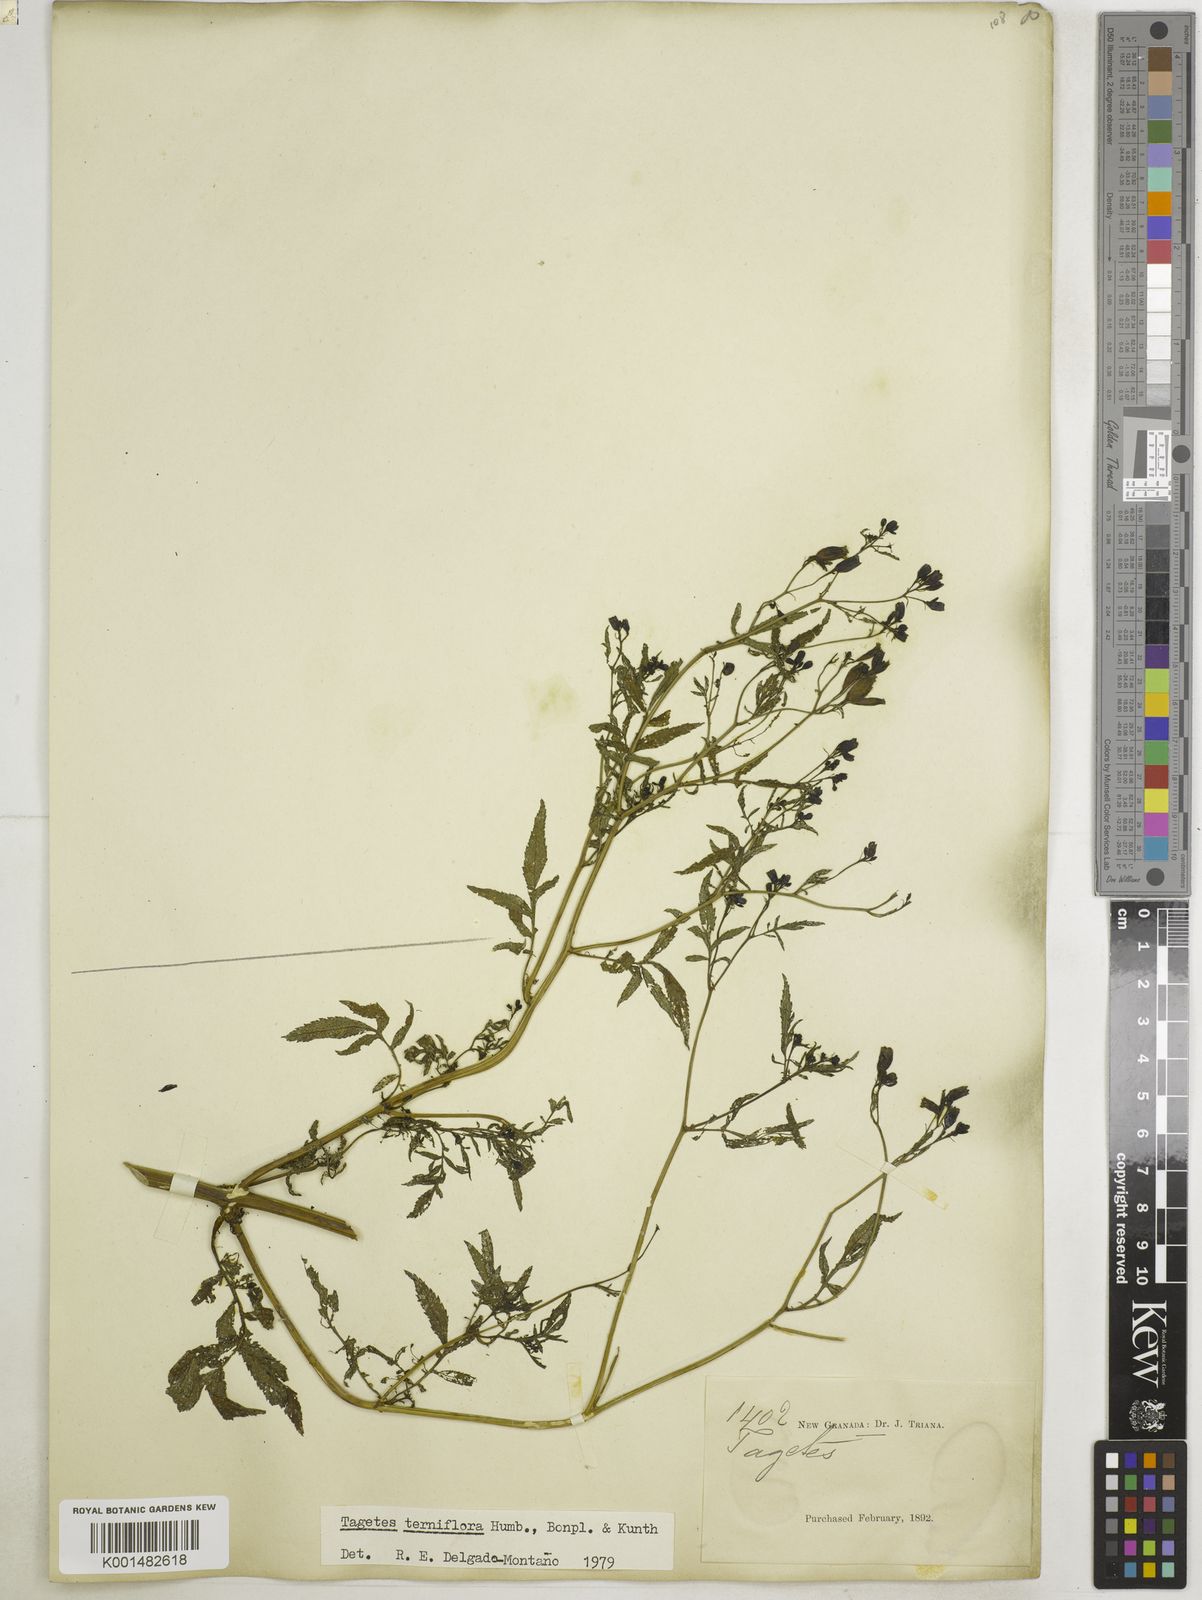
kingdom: Plantae
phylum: Tracheophyta
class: Magnoliopsida
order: Asterales
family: Asteraceae
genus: Tagetes
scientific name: Tagetes terniflora
